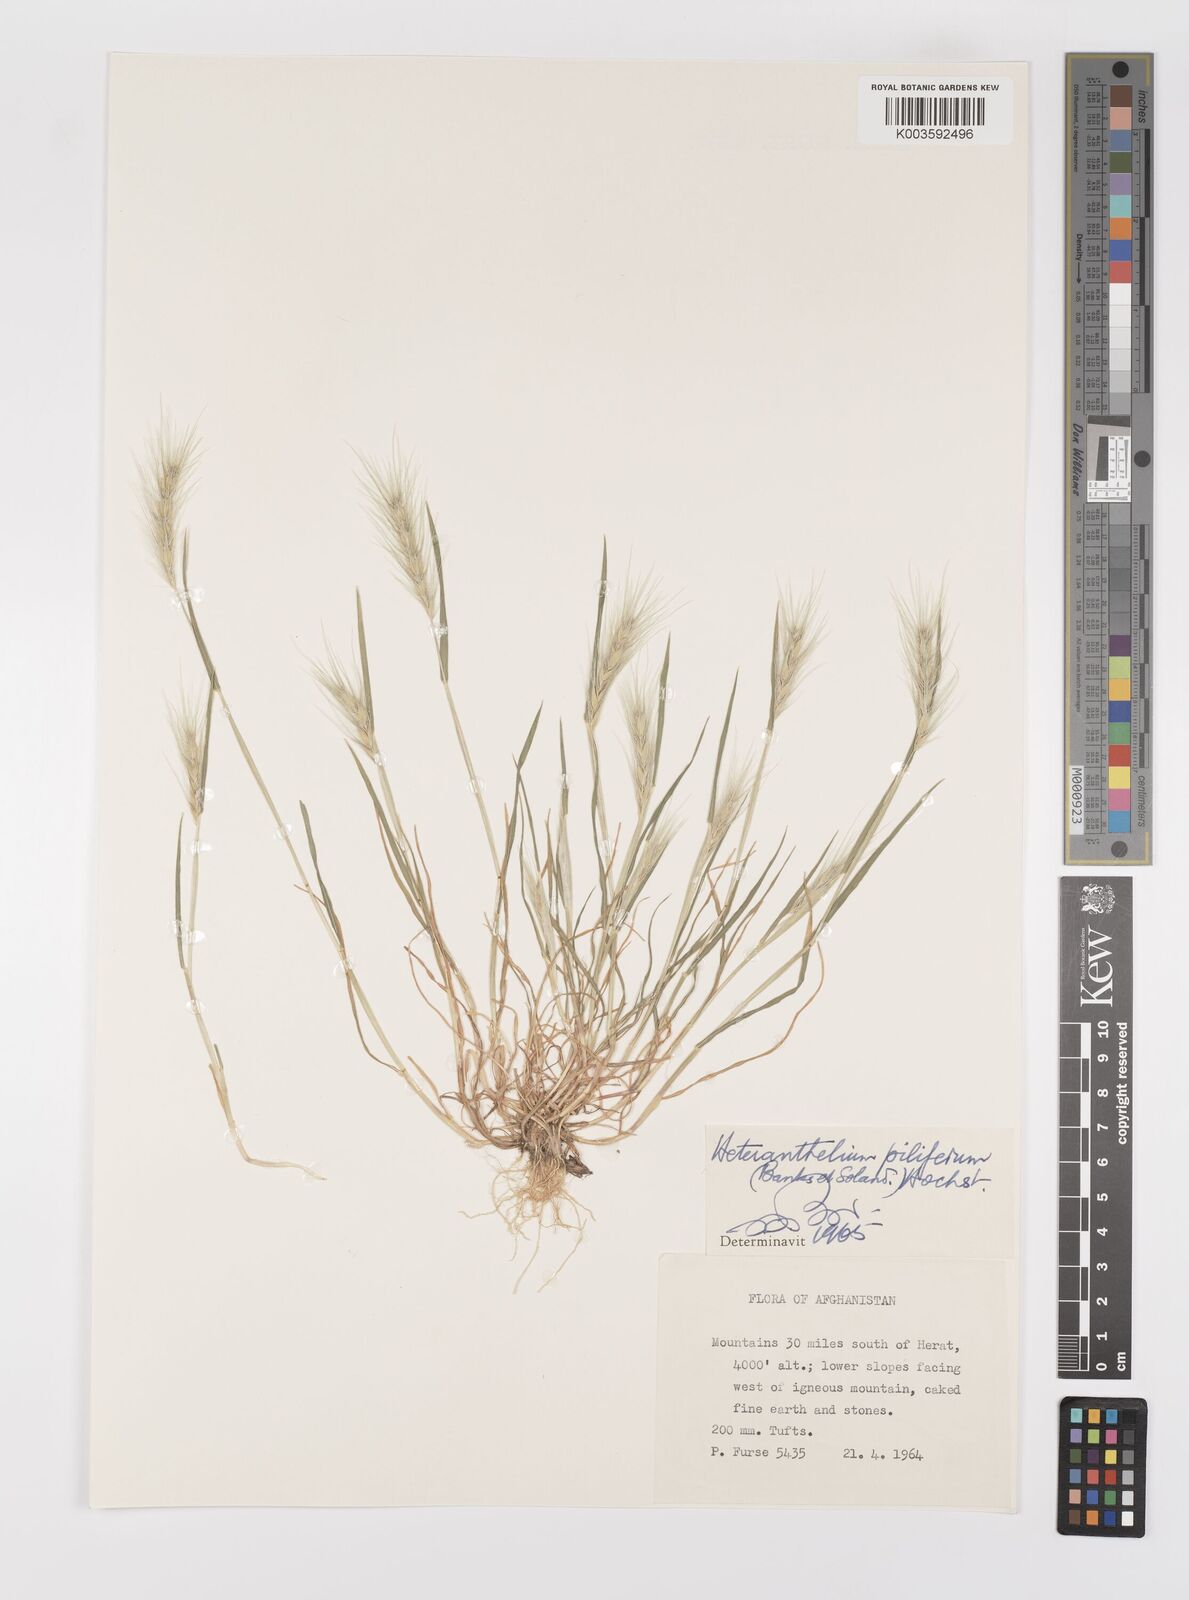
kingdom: Plantae
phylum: Tracheophyta
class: Liliopsida
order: Poales
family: Poaceae
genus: Heteranthelium
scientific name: Heteranthelium piliferum
